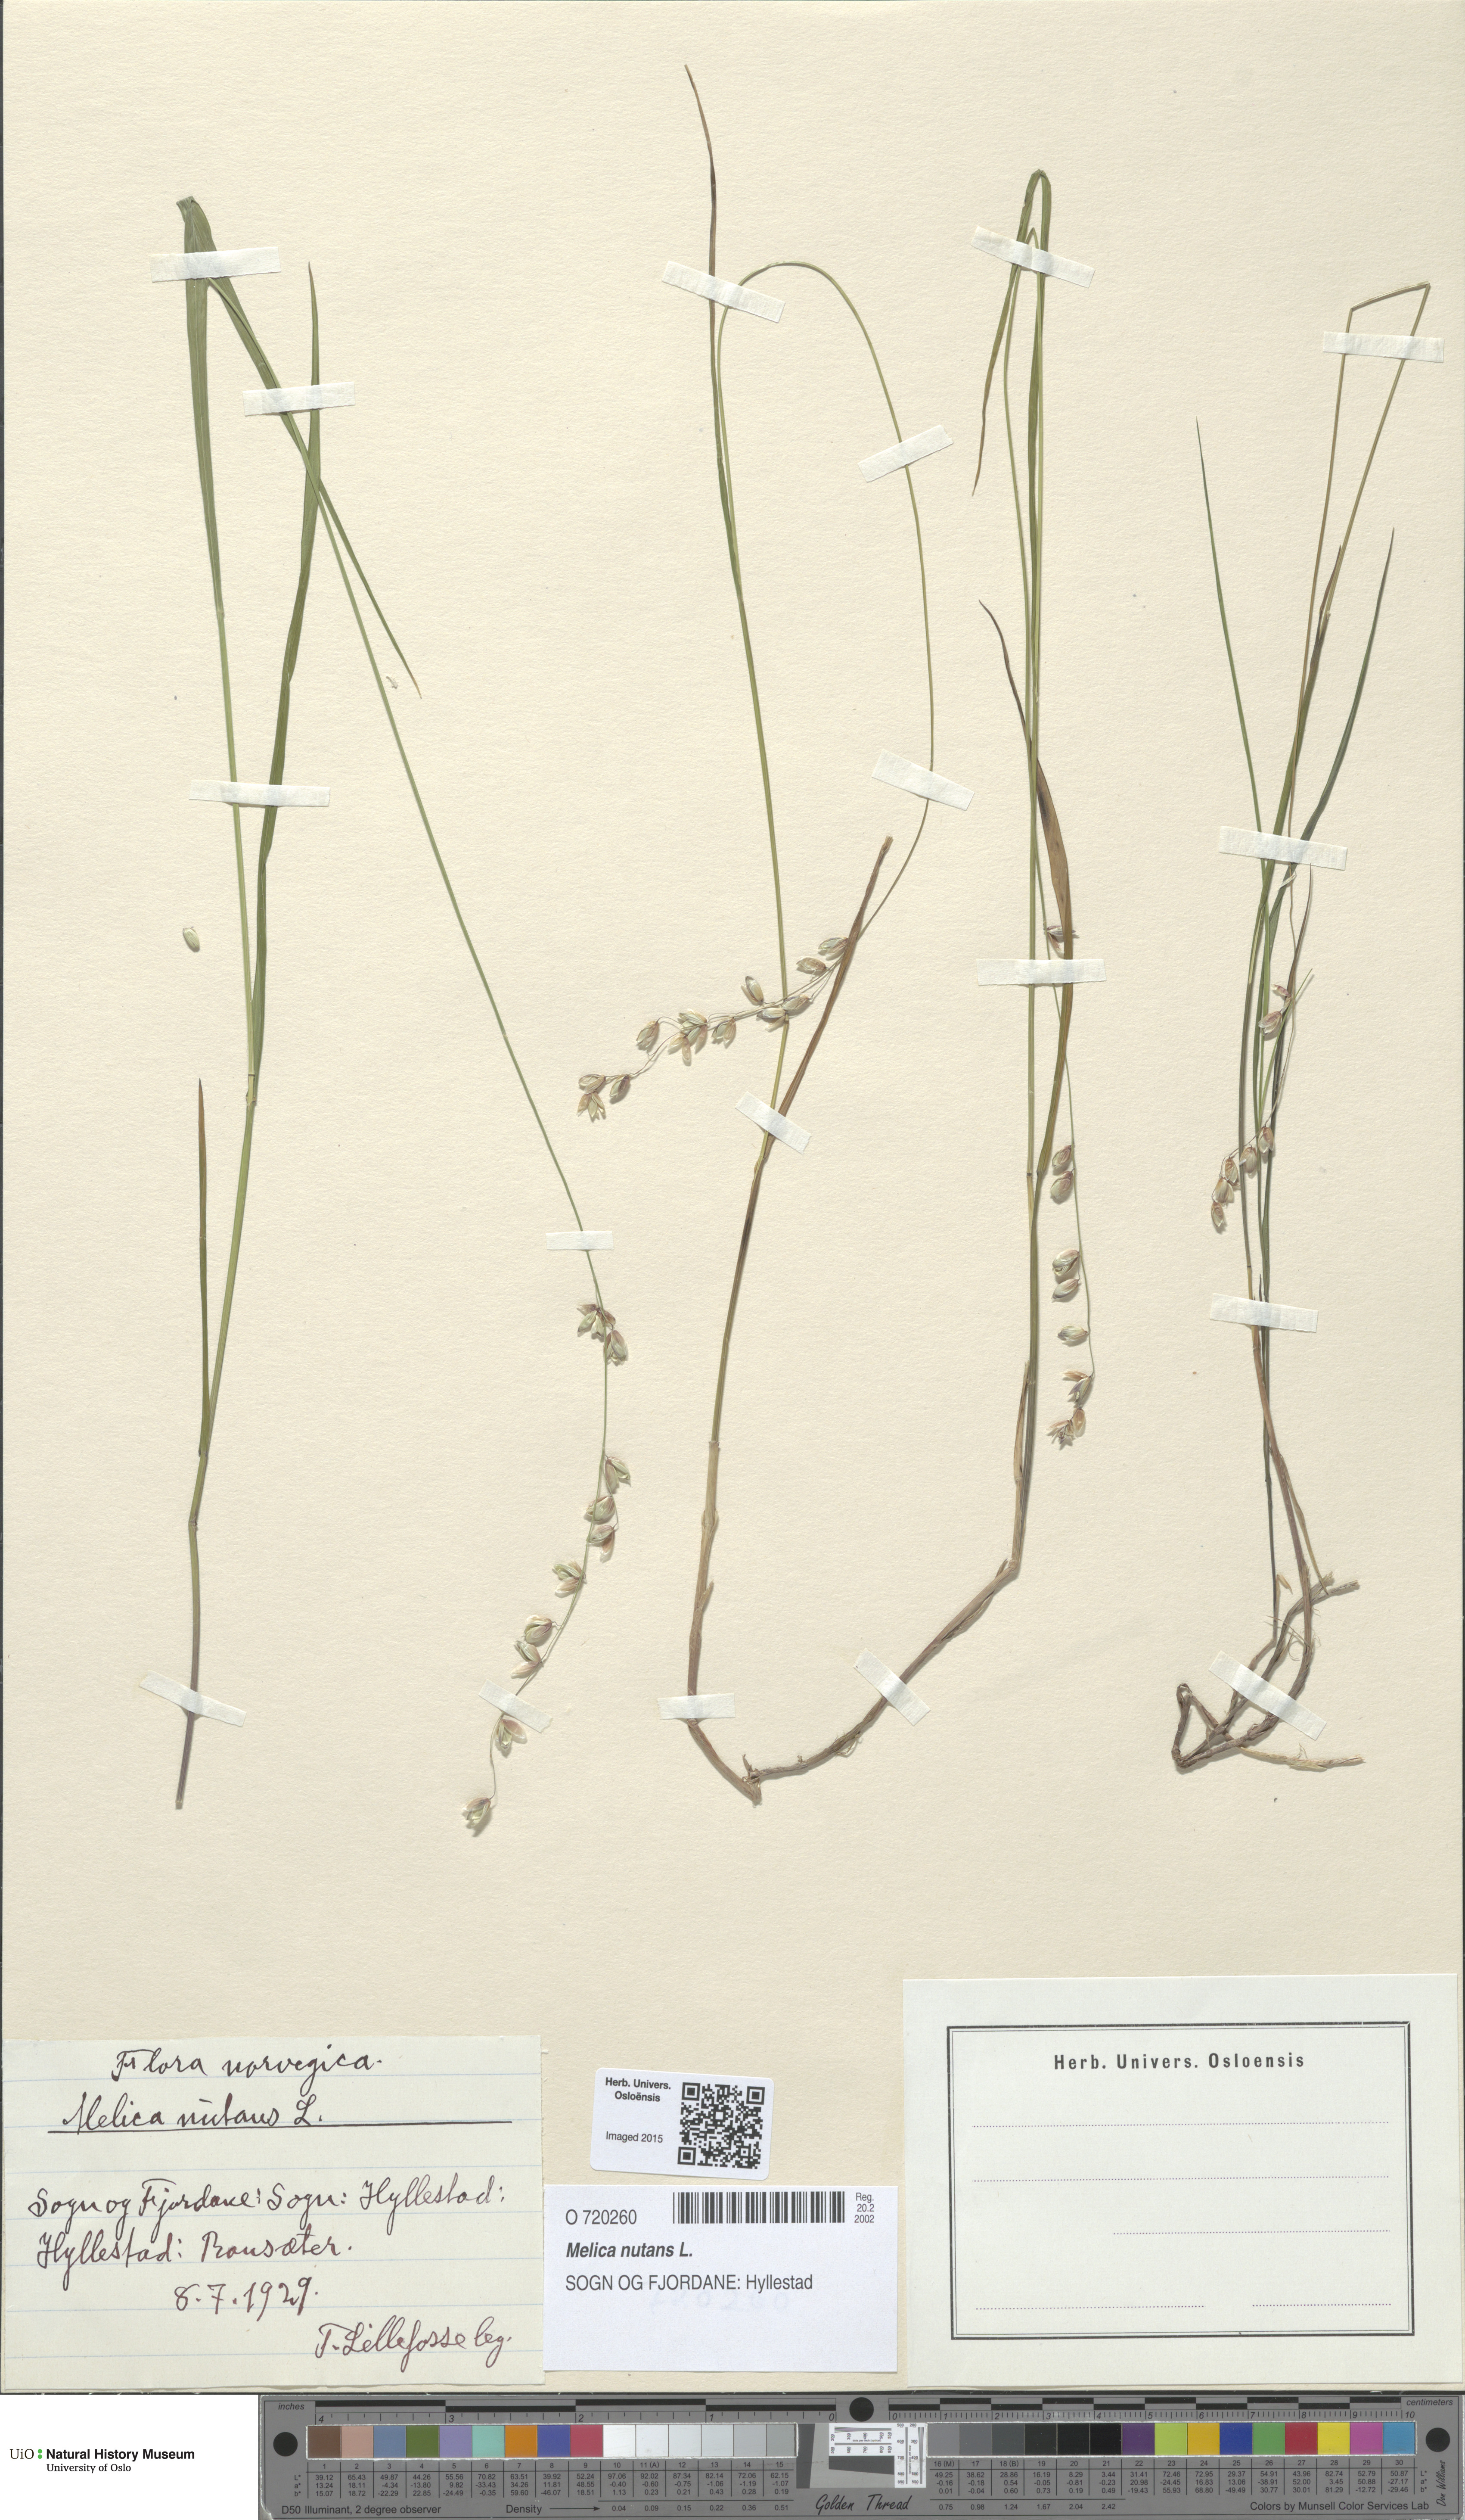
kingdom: Plantae
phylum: Tracheophyta
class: Liliopsida
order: Poales
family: Poaceae
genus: Melica
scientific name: Melica nutans
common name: Mountain melick
